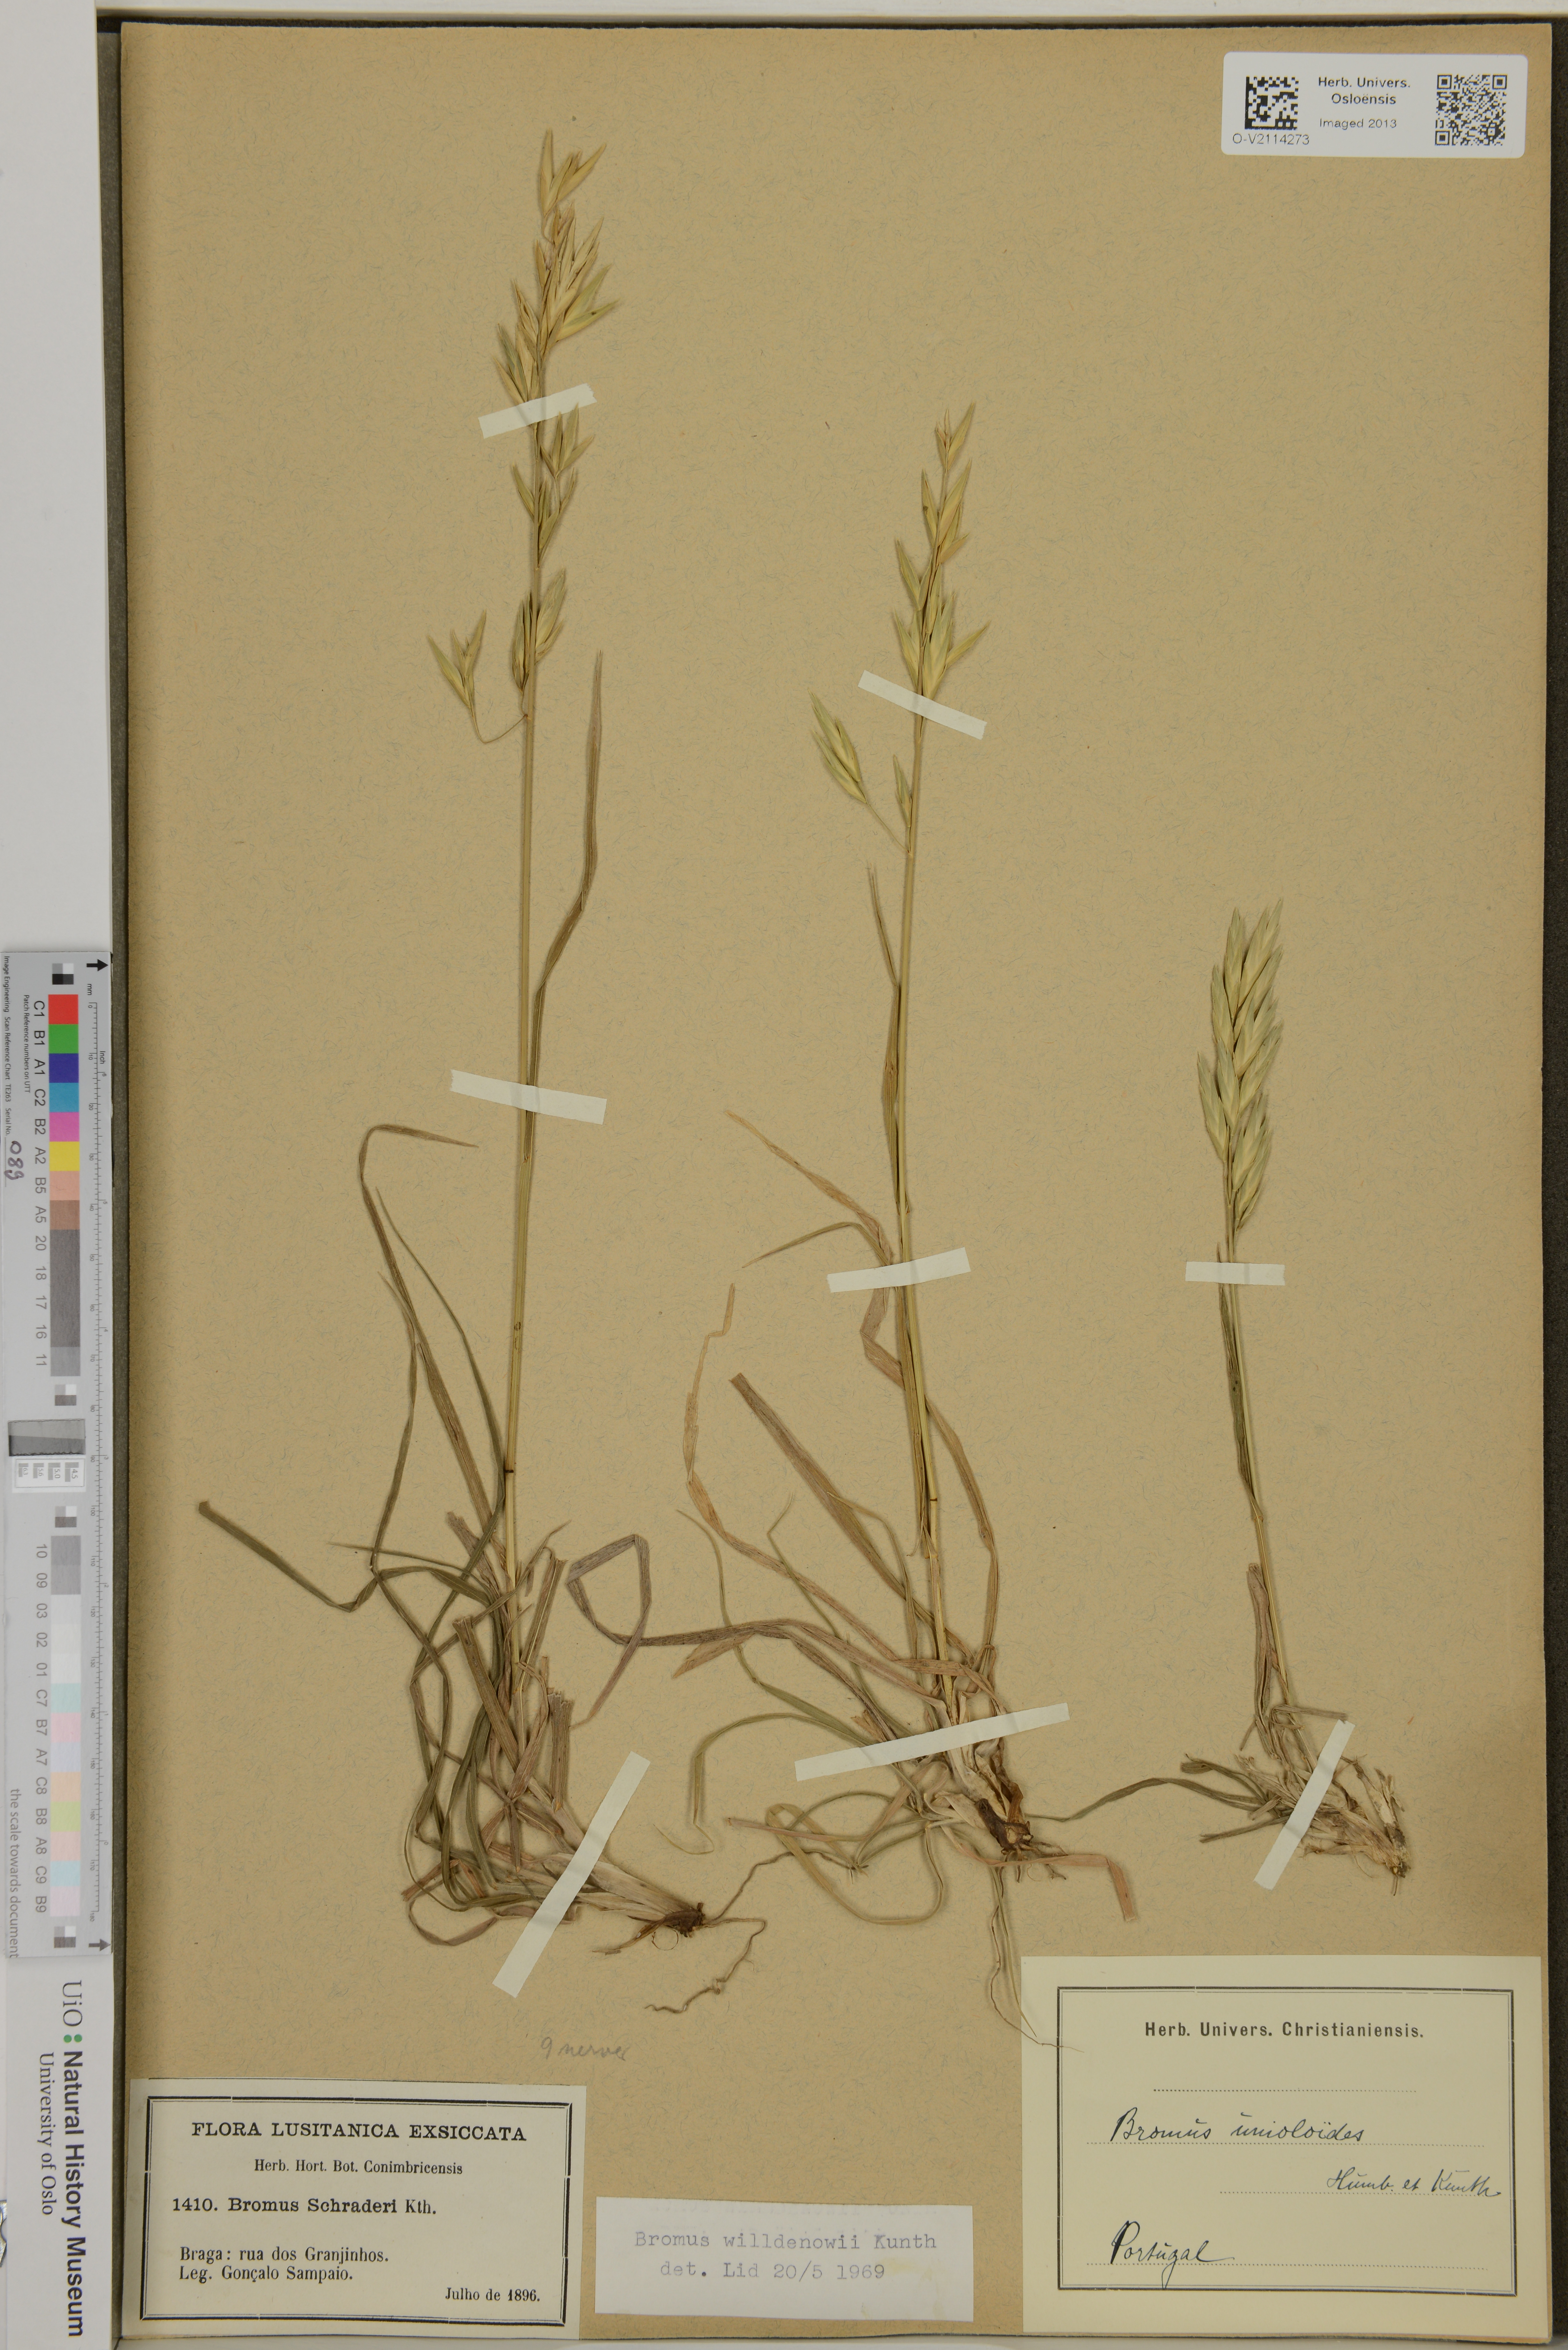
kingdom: Plantae
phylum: Tracheophyta
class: Liliopsida
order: Poales
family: Poaceae
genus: Bromus
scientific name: Bromus catharticus
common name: Rescuegrass
